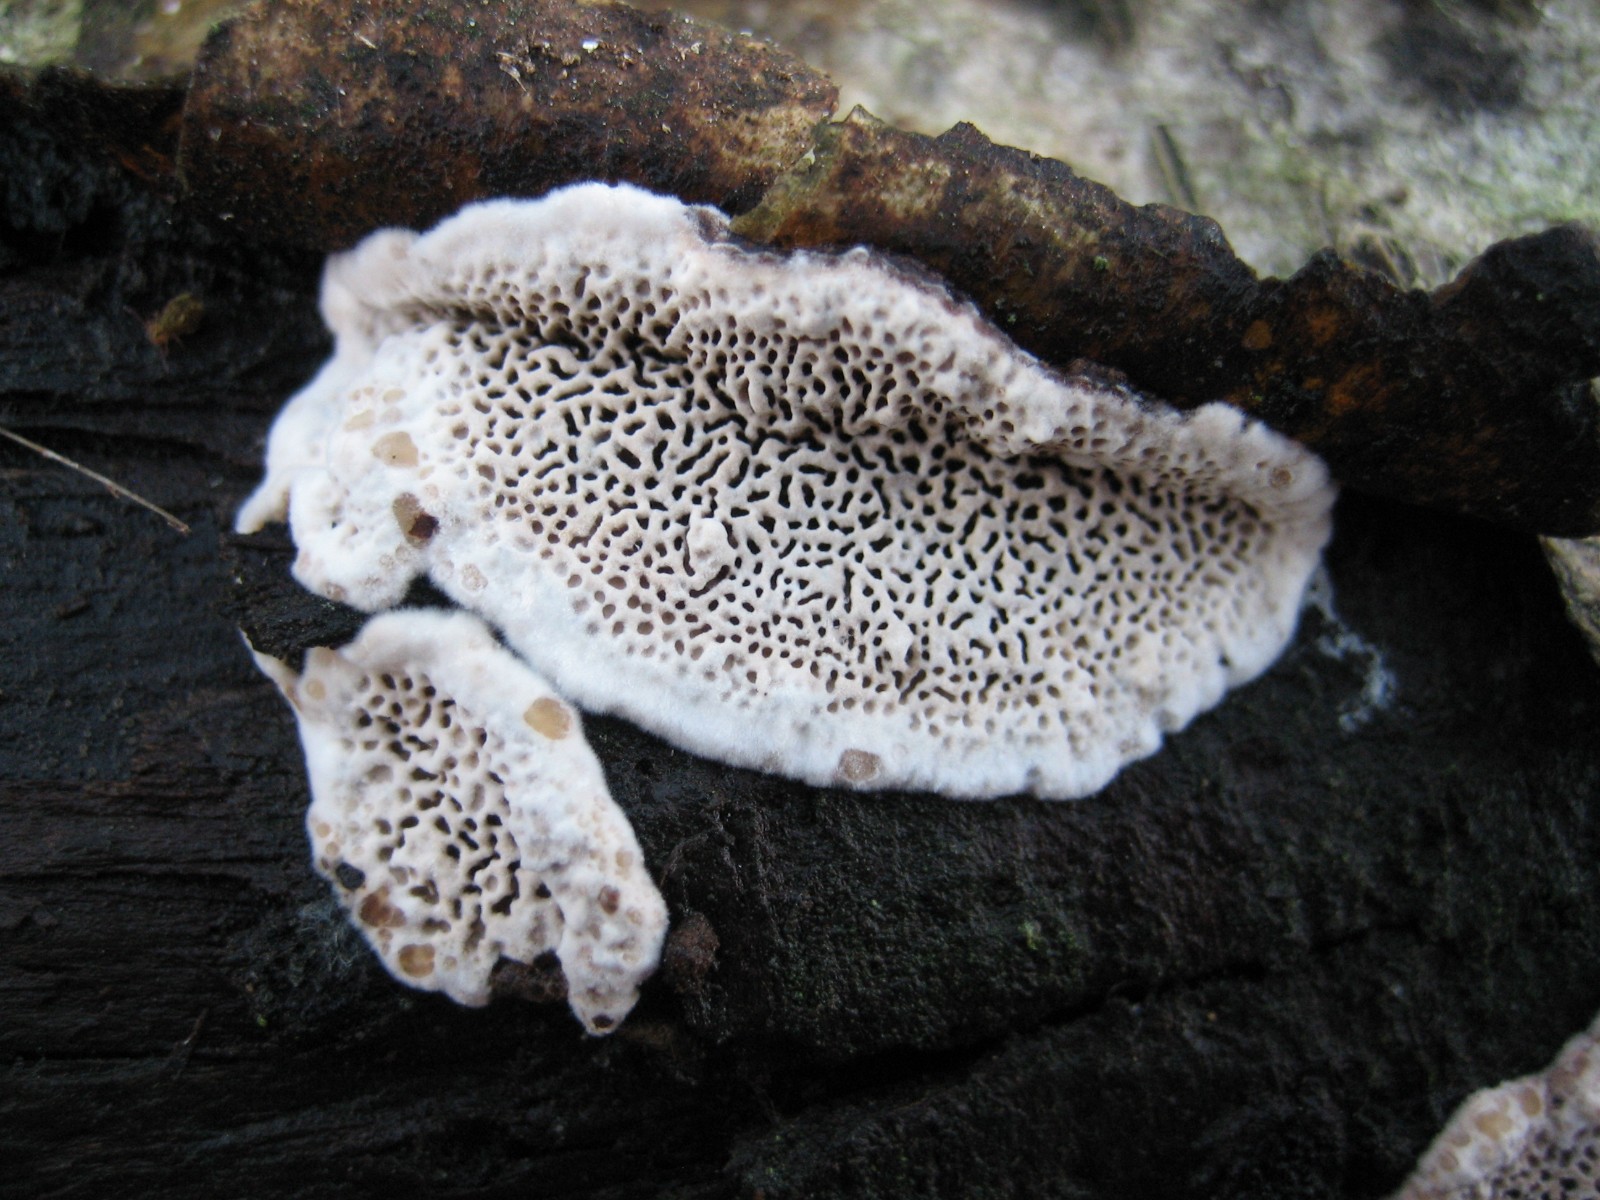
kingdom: Fungi
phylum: Basidiomycota
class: Agaricomycetes
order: Polyporales
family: Polyporaceae
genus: Podofomes
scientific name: Podofomes mollis
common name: blød begporesvamp
